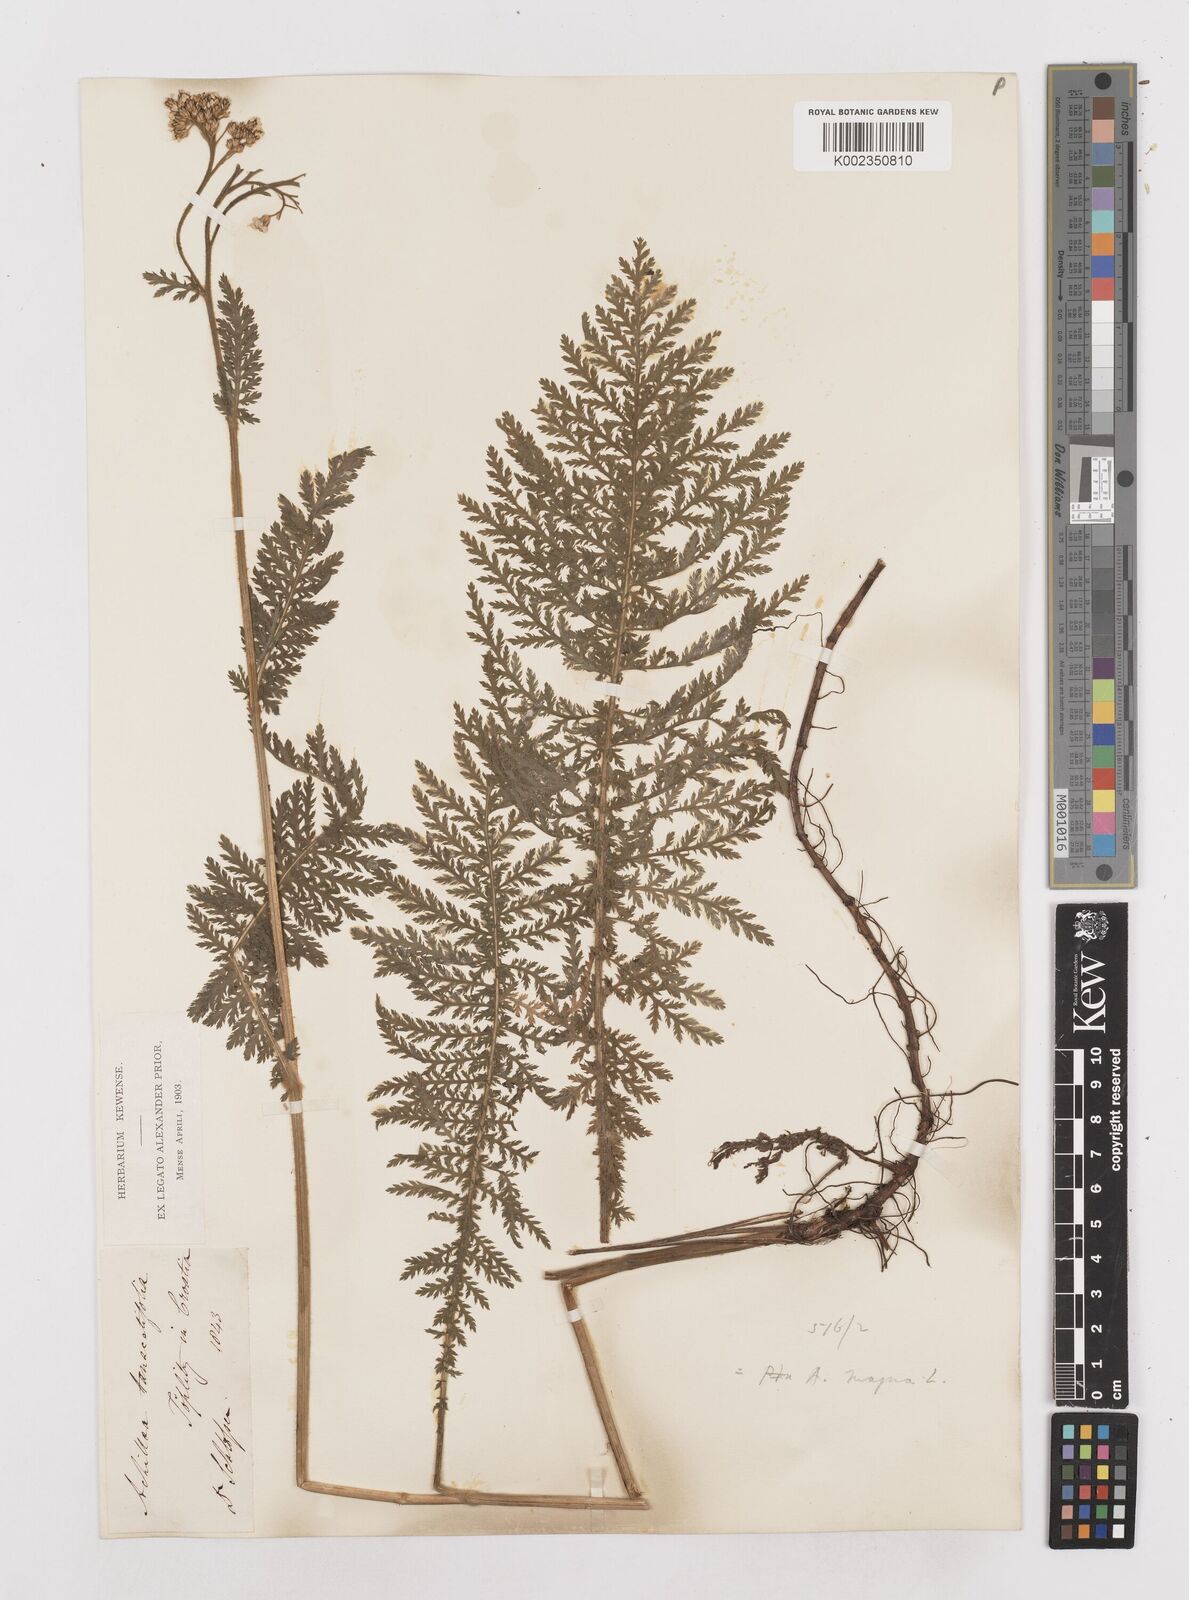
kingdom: Plantae
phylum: Tracheophyta
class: Magnoliopsida
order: Asterales
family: Asteraceae
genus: Achillea
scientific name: Achillea distans
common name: Tall yarrow
